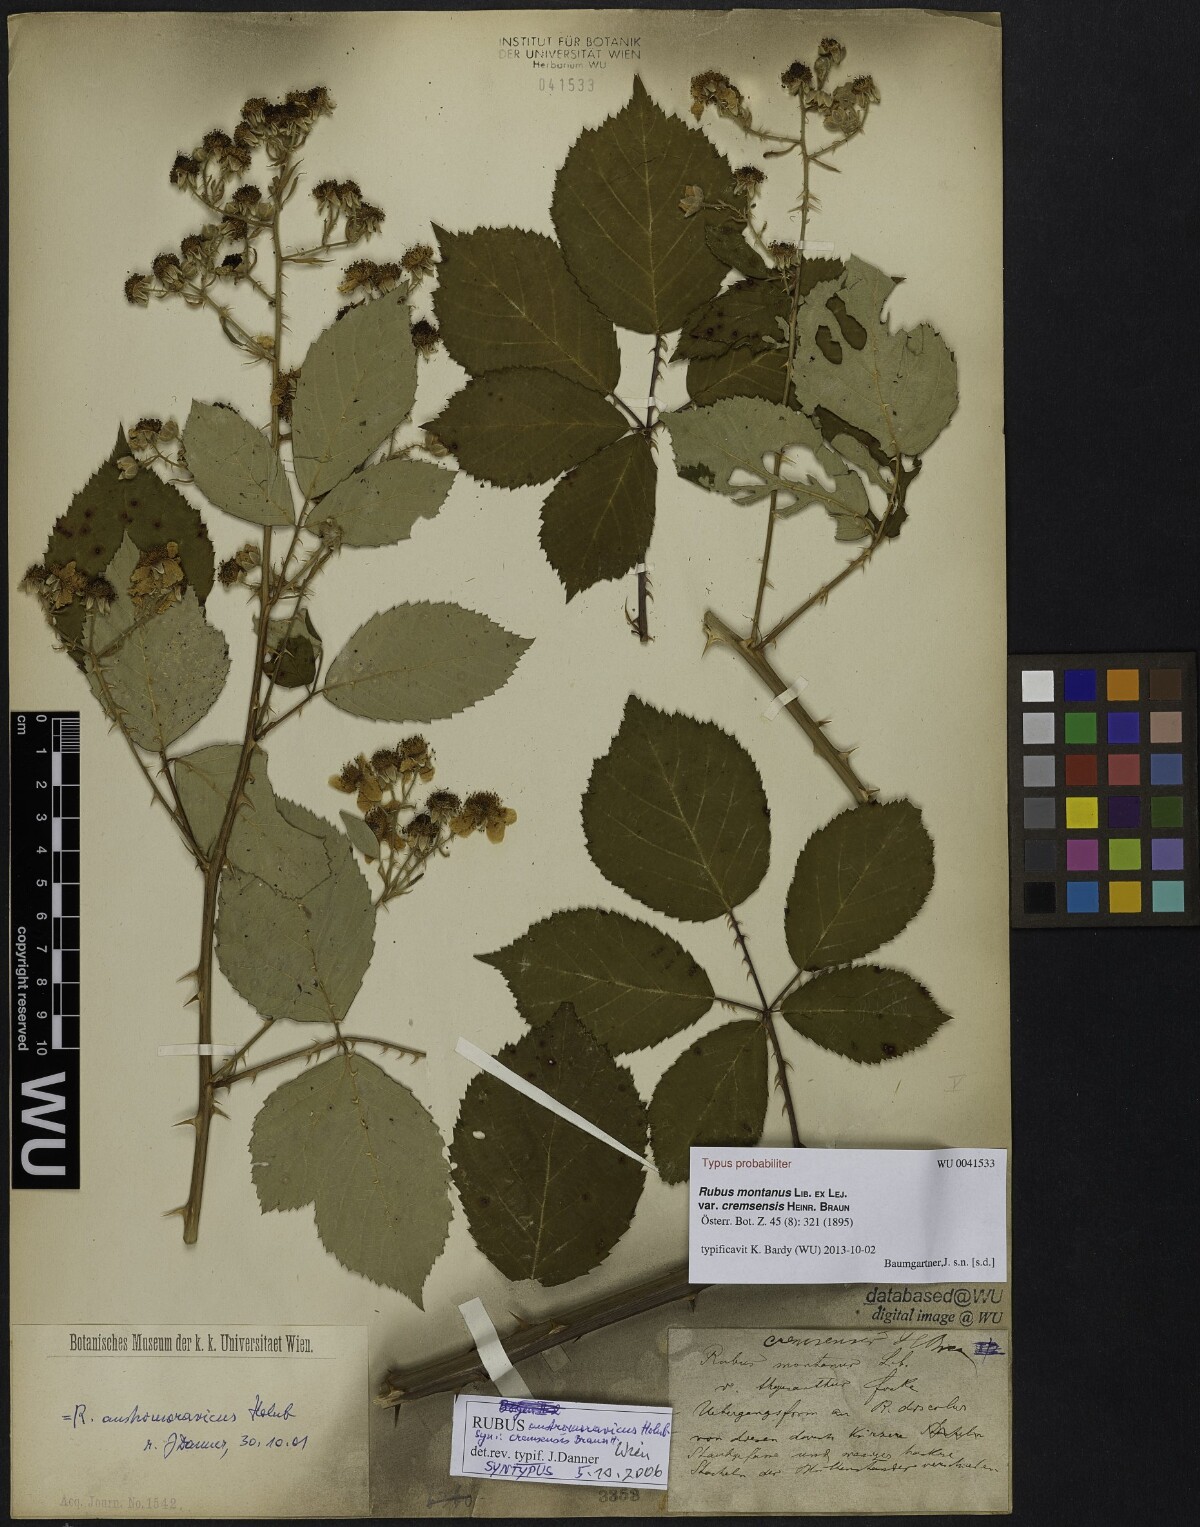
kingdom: Plantae
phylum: Tracheophyta
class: Magnoliopsida
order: Rosales
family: Rosaceae
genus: Rubus
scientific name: Rubus montanus
